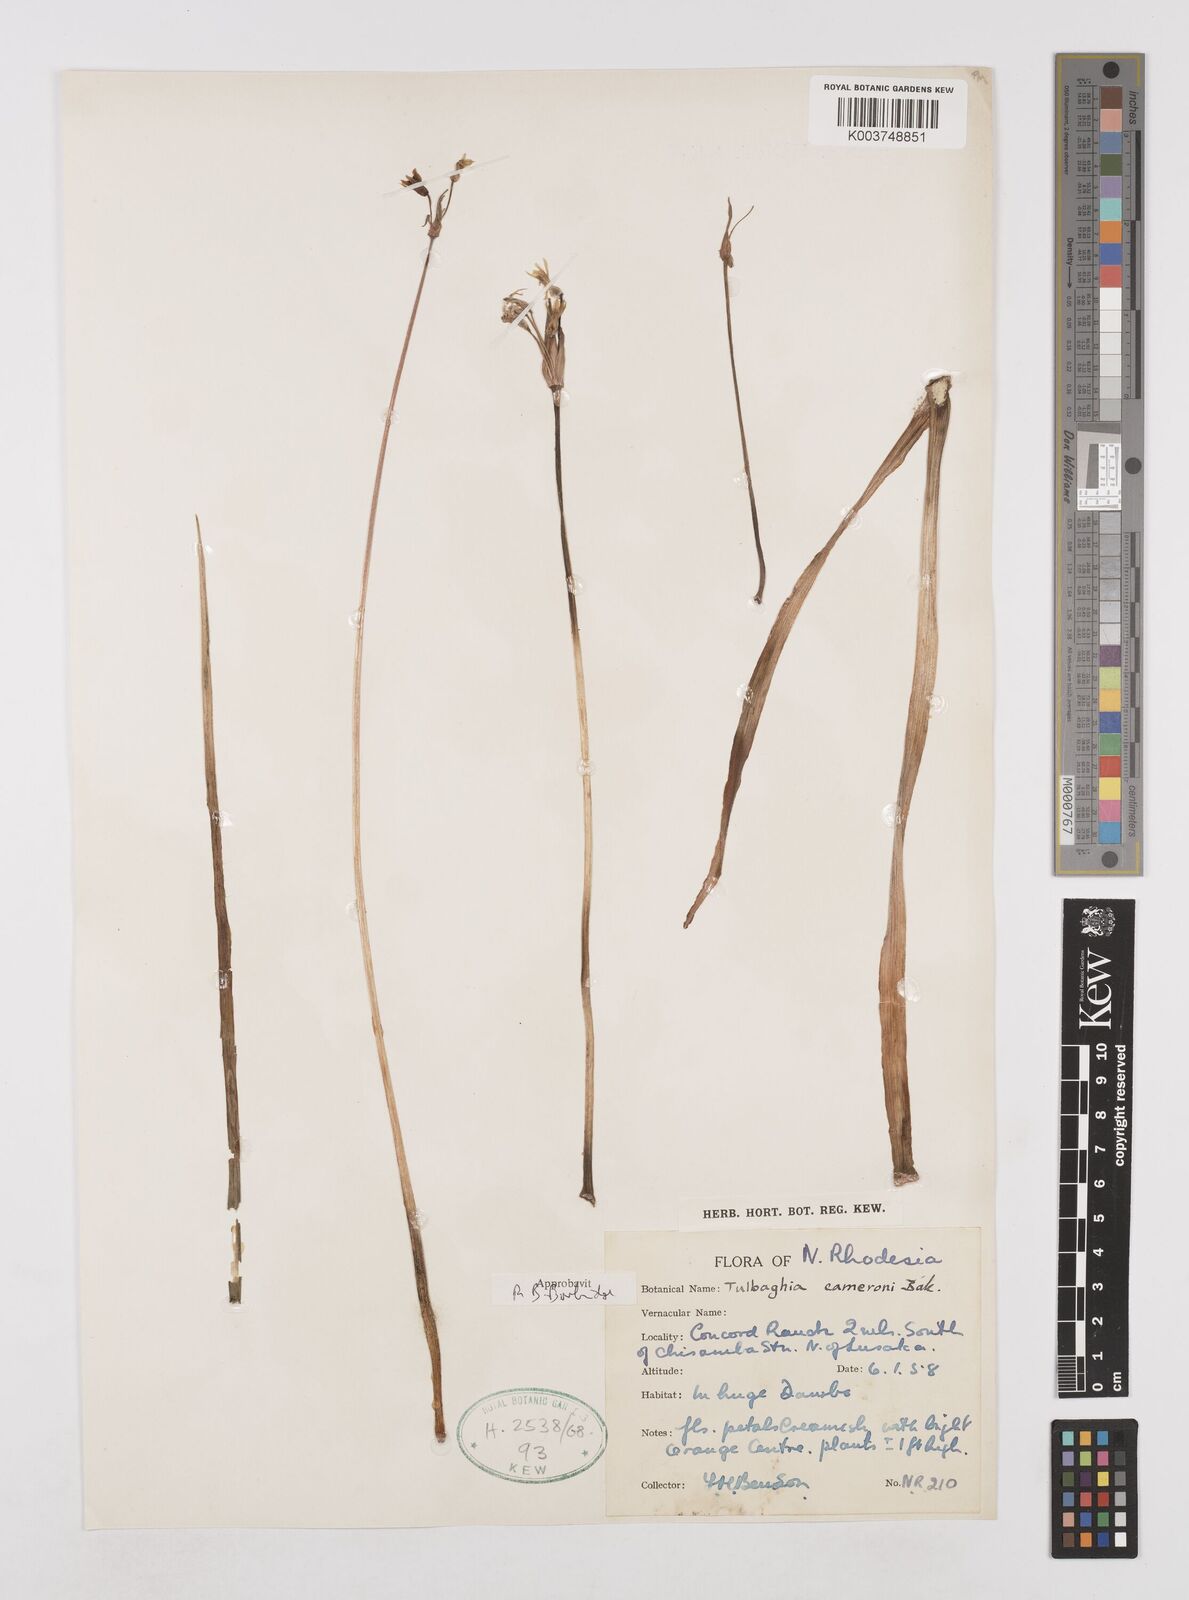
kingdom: Plantae
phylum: Tracheophyta
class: Liliopsida
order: Asparagales
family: Amaryllidaceae
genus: Tulbaghia
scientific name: Tulbaghia cameronii
